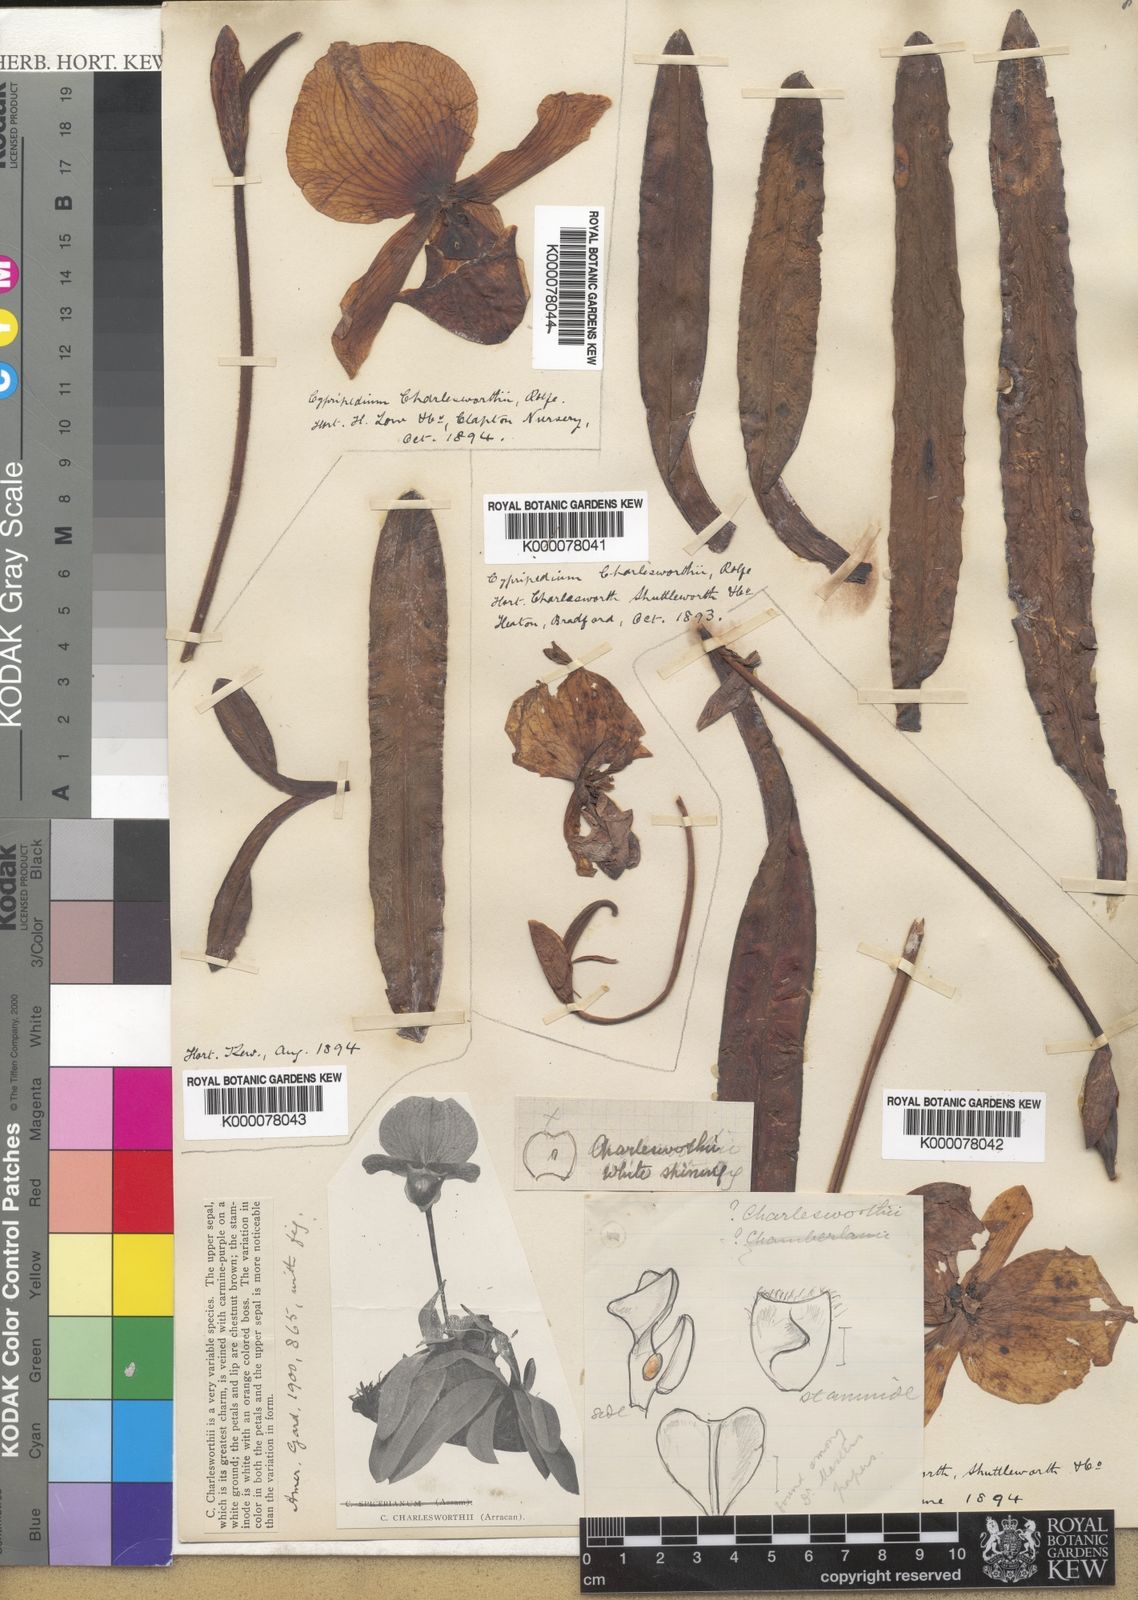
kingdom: Plantae
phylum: Tracheophyta
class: Liliopsida
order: Asparagales
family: Orchidaceae
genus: Paphiopedilum
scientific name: Paphiopedilum charlesworthii
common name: Charlesworth paphiopedilum
